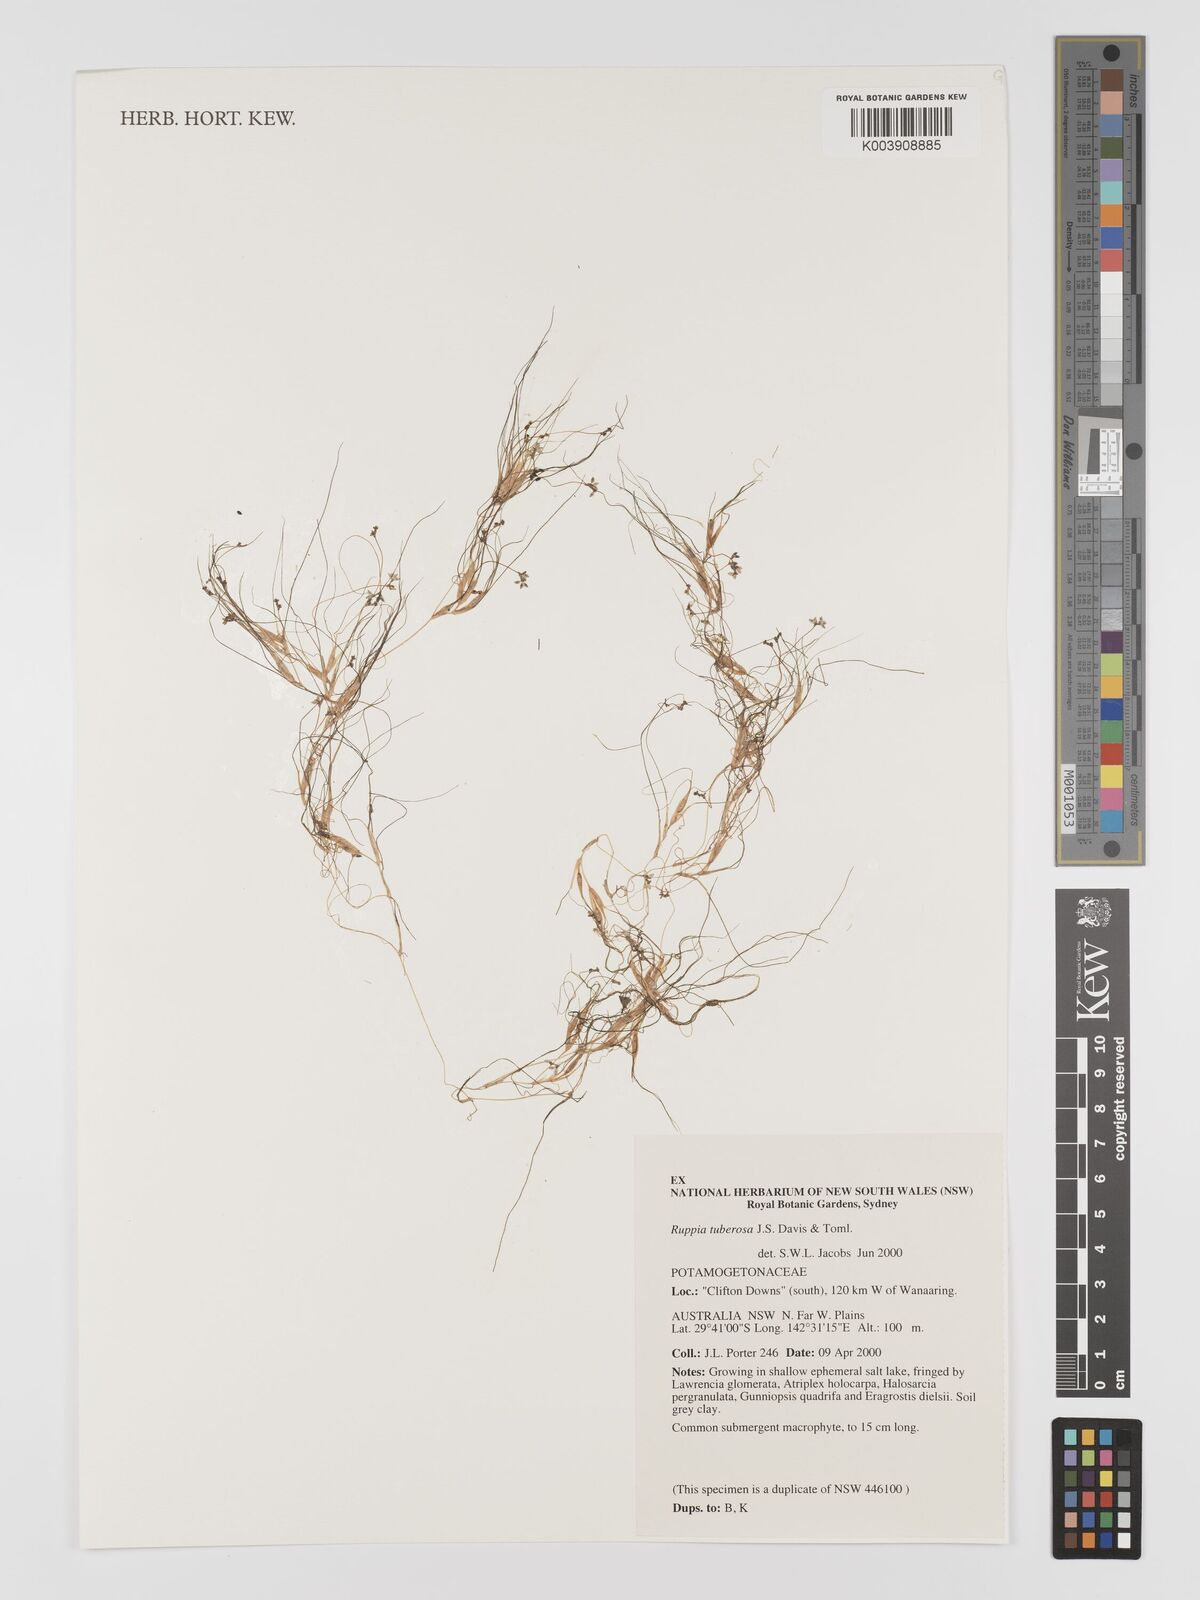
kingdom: Plantae
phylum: Tracheophyta
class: Liliopsida
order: Alismatales
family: Ruppiaceae
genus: Ruppia
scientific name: Ruppia tuberosa
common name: Species code: rt
